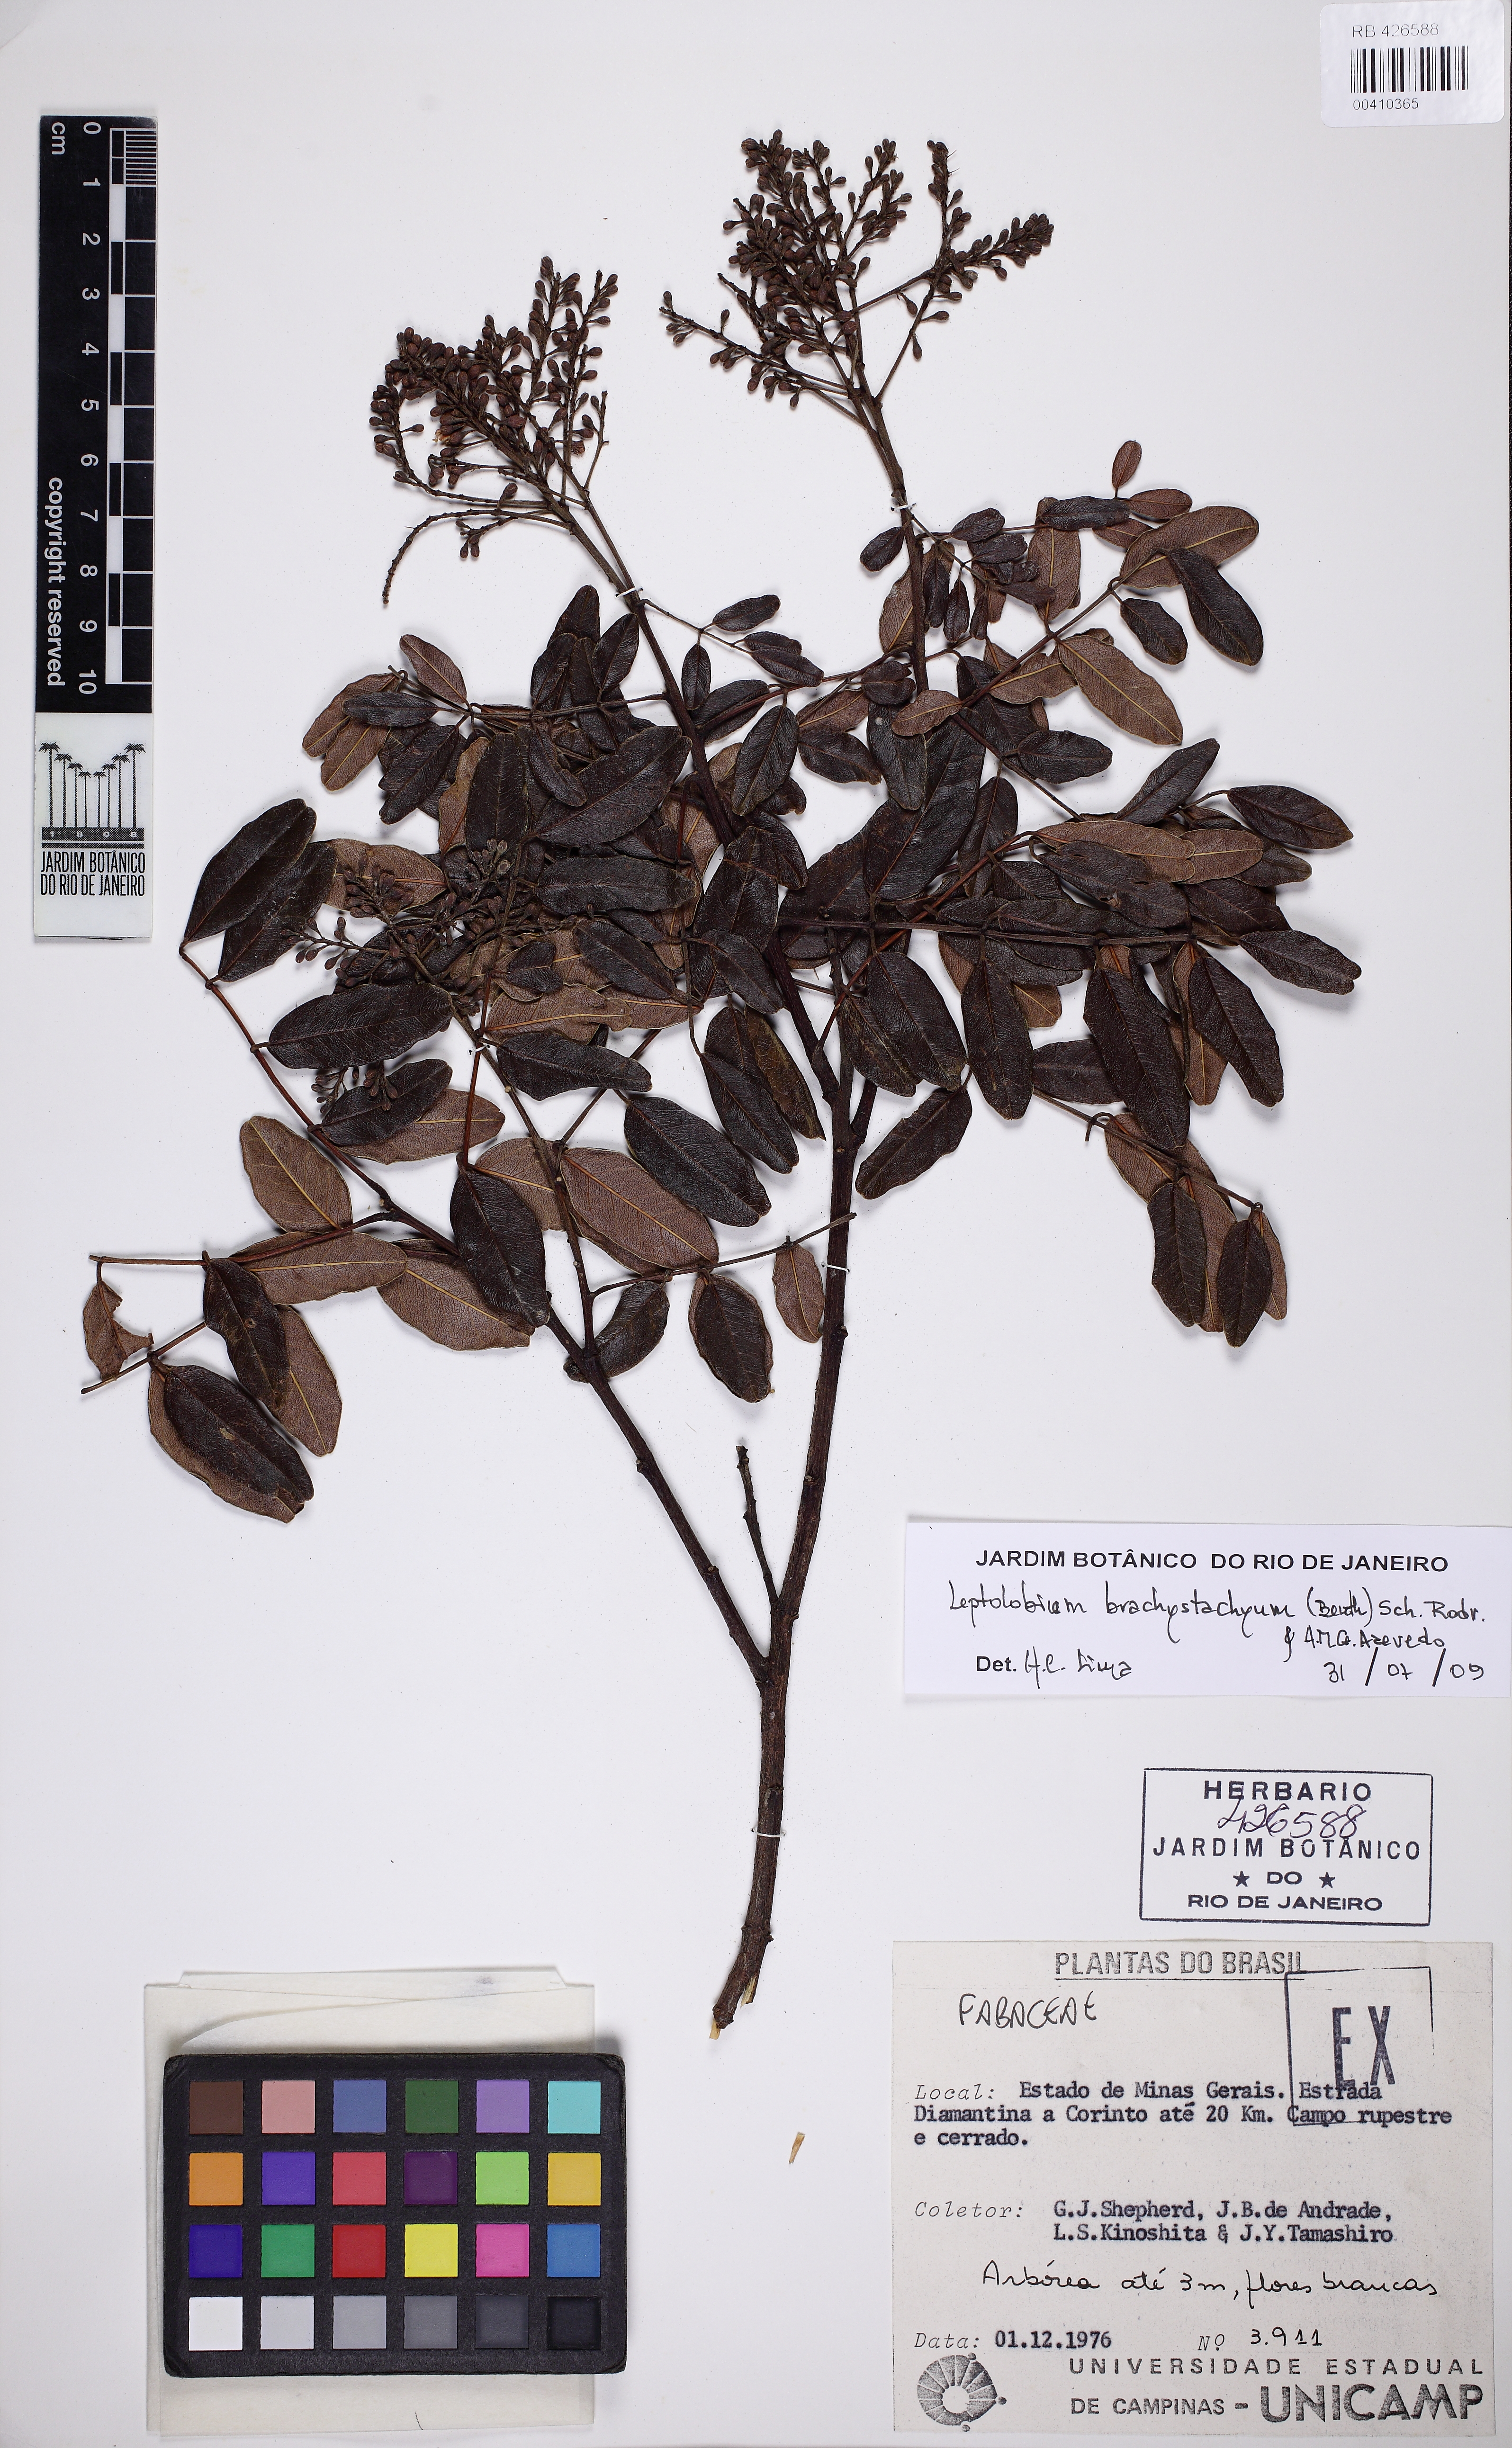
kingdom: Plantae
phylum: Tracheophyta
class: Magnoliopsida
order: Fabales
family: Fabaceae
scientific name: Fabaceae
